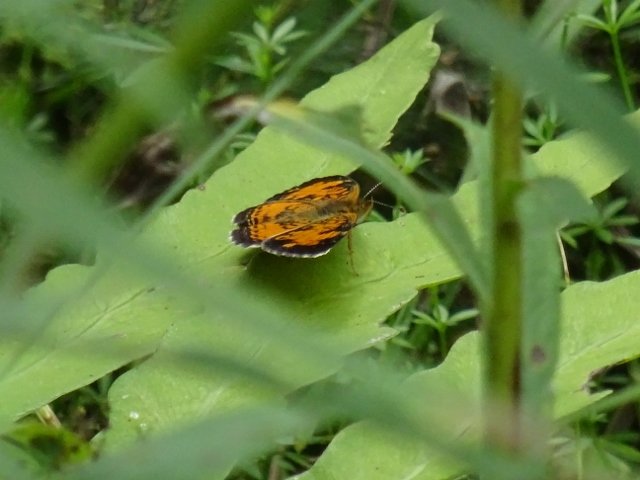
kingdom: Animalia
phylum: Arthropoda
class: Insecta
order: Lepidoptera
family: Nymphalidae
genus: Phyciodes
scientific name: Phyciodes tharos
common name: Pearl Crescent
